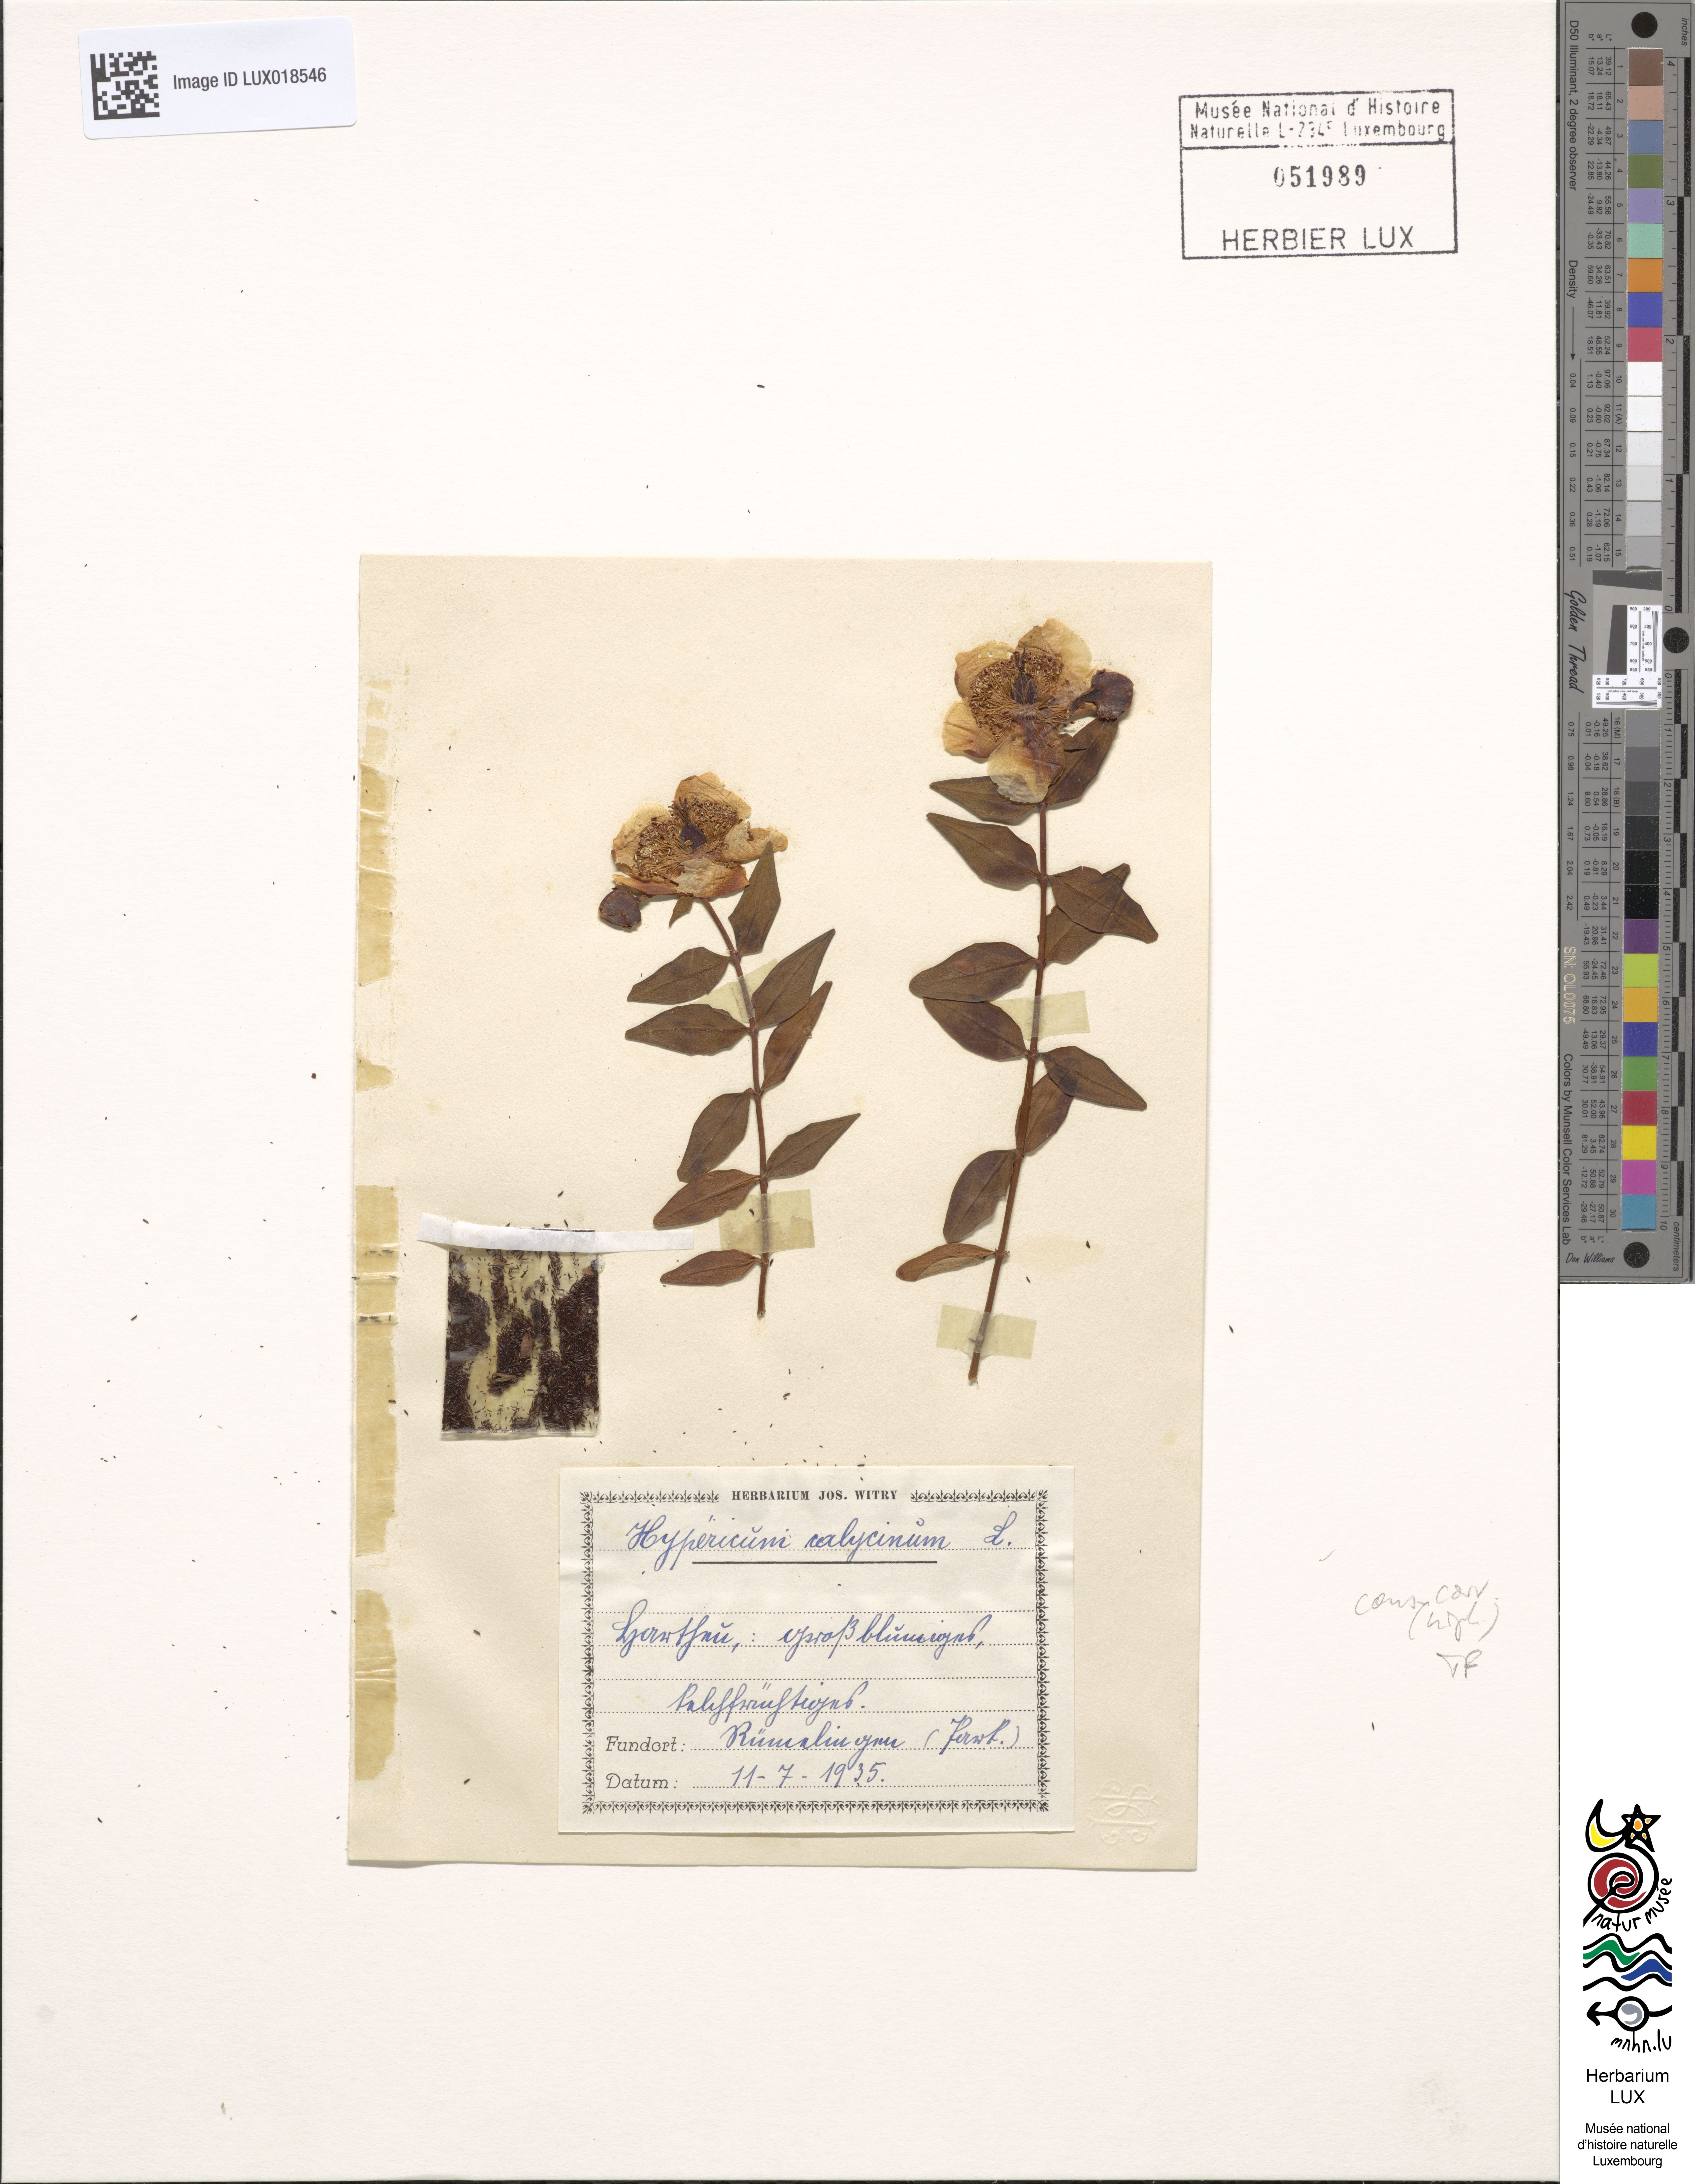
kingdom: Plantae
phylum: Tracheophyta
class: Magnoliopsida
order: Malpighiales
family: Hypericaceae
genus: Hypericum
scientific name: Hypericum calycinum
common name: Rose-of-sharon
